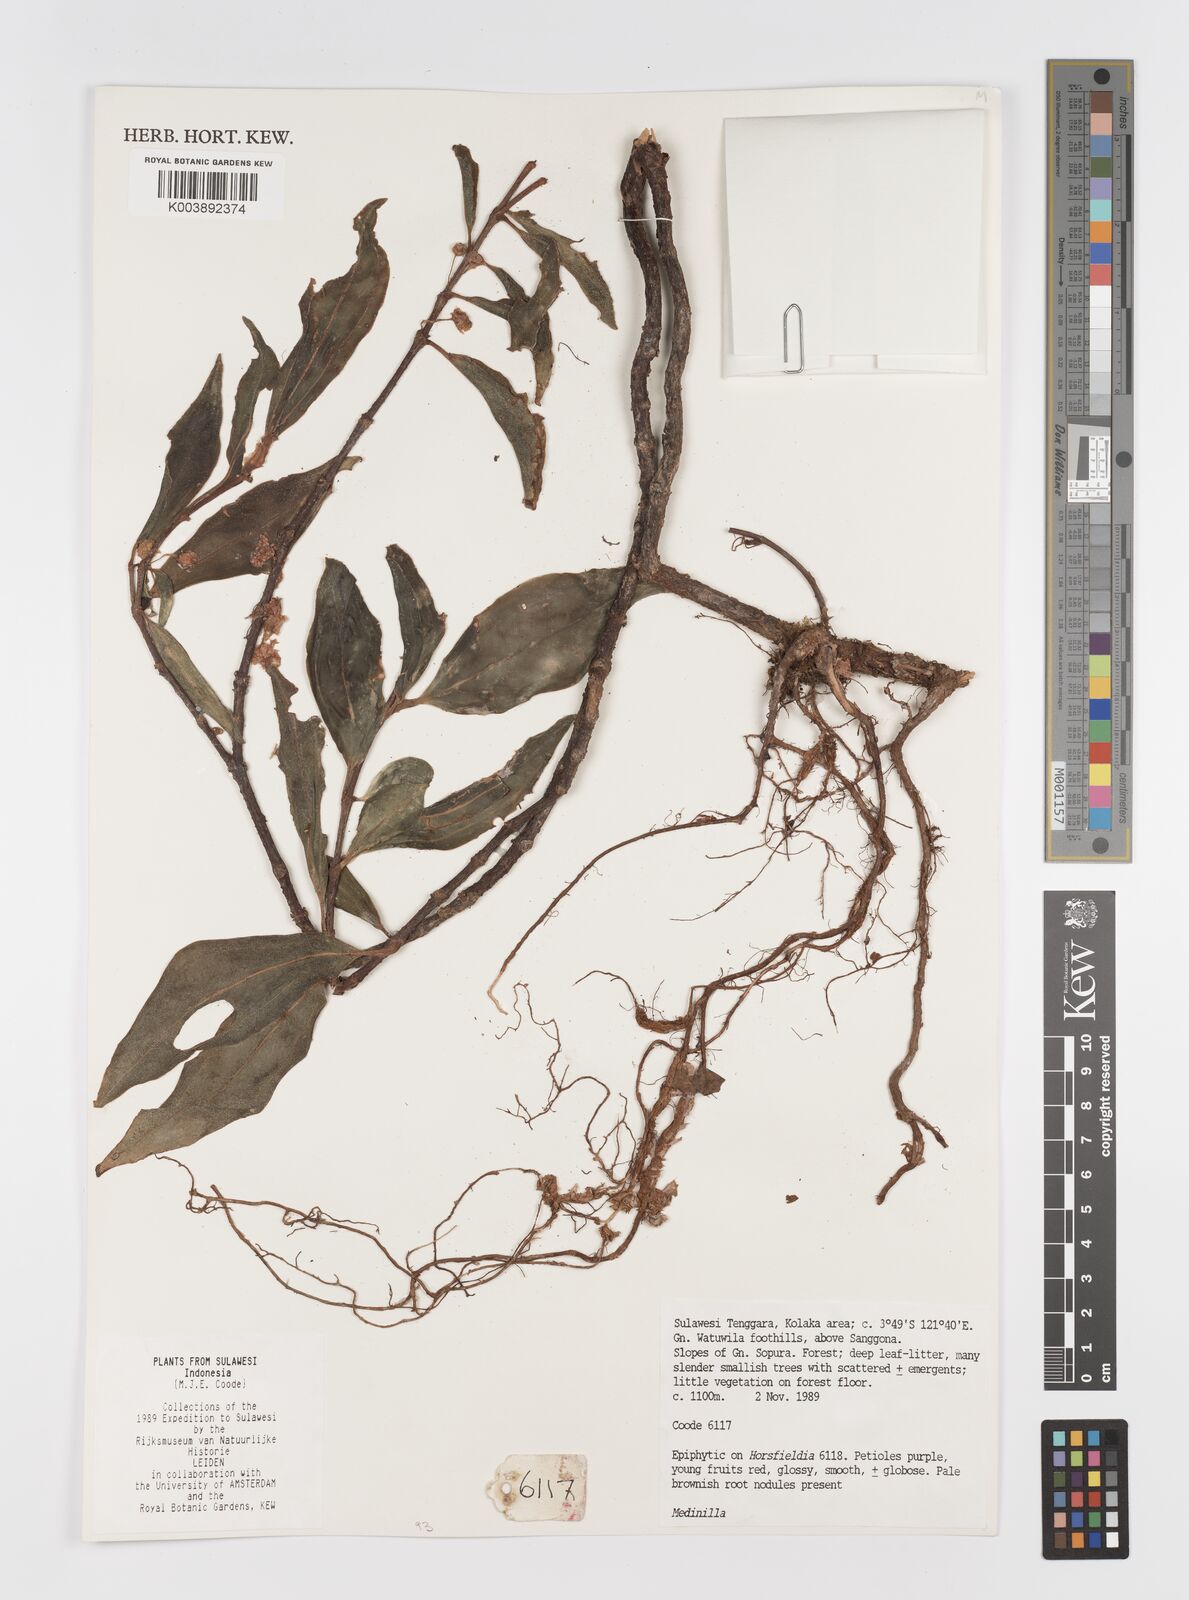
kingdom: Plantae
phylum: Tracheophyta
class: Magnoliopsida
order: Myrtales
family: Melastomataceae
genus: Medinilla
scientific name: Medinilla
